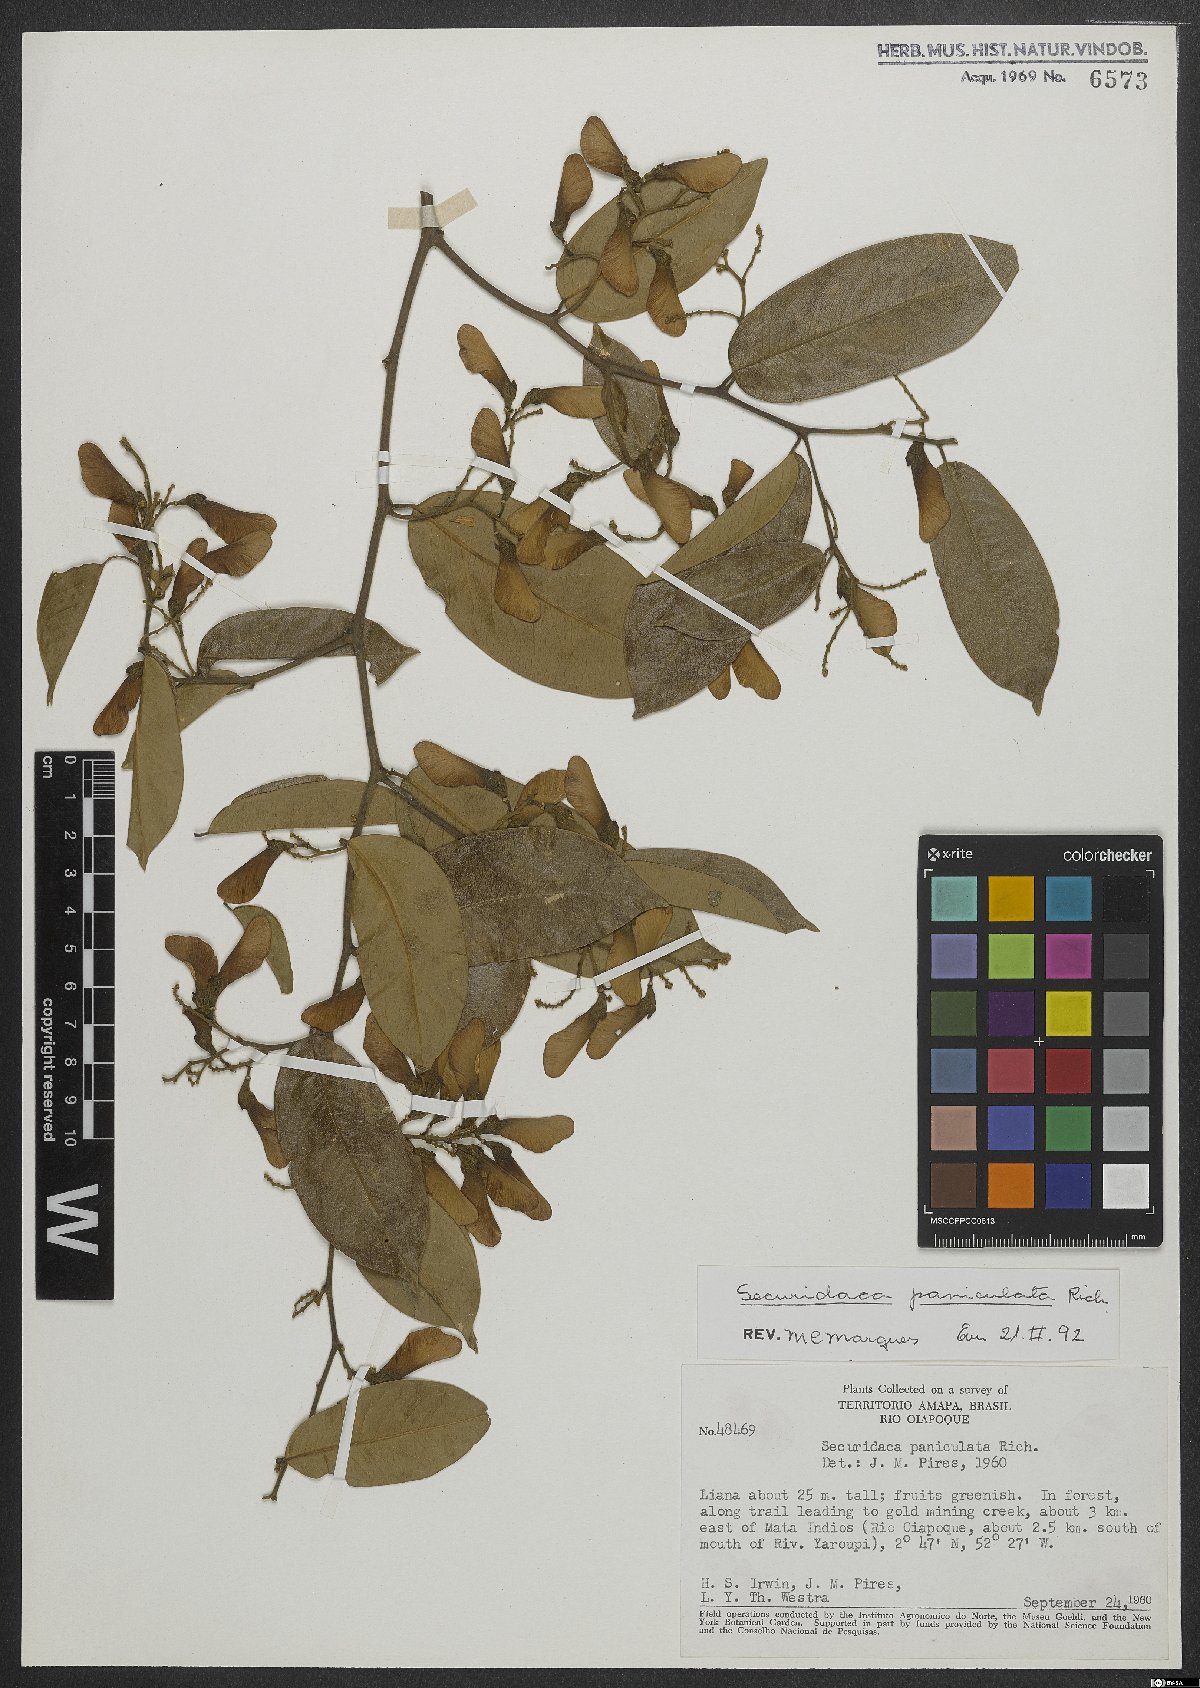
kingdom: Plantae
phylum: Tracheophyta
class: Magnoliopsida
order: Fabales
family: Polygalaceae
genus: Securidaca
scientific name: Securidaca paniculata
